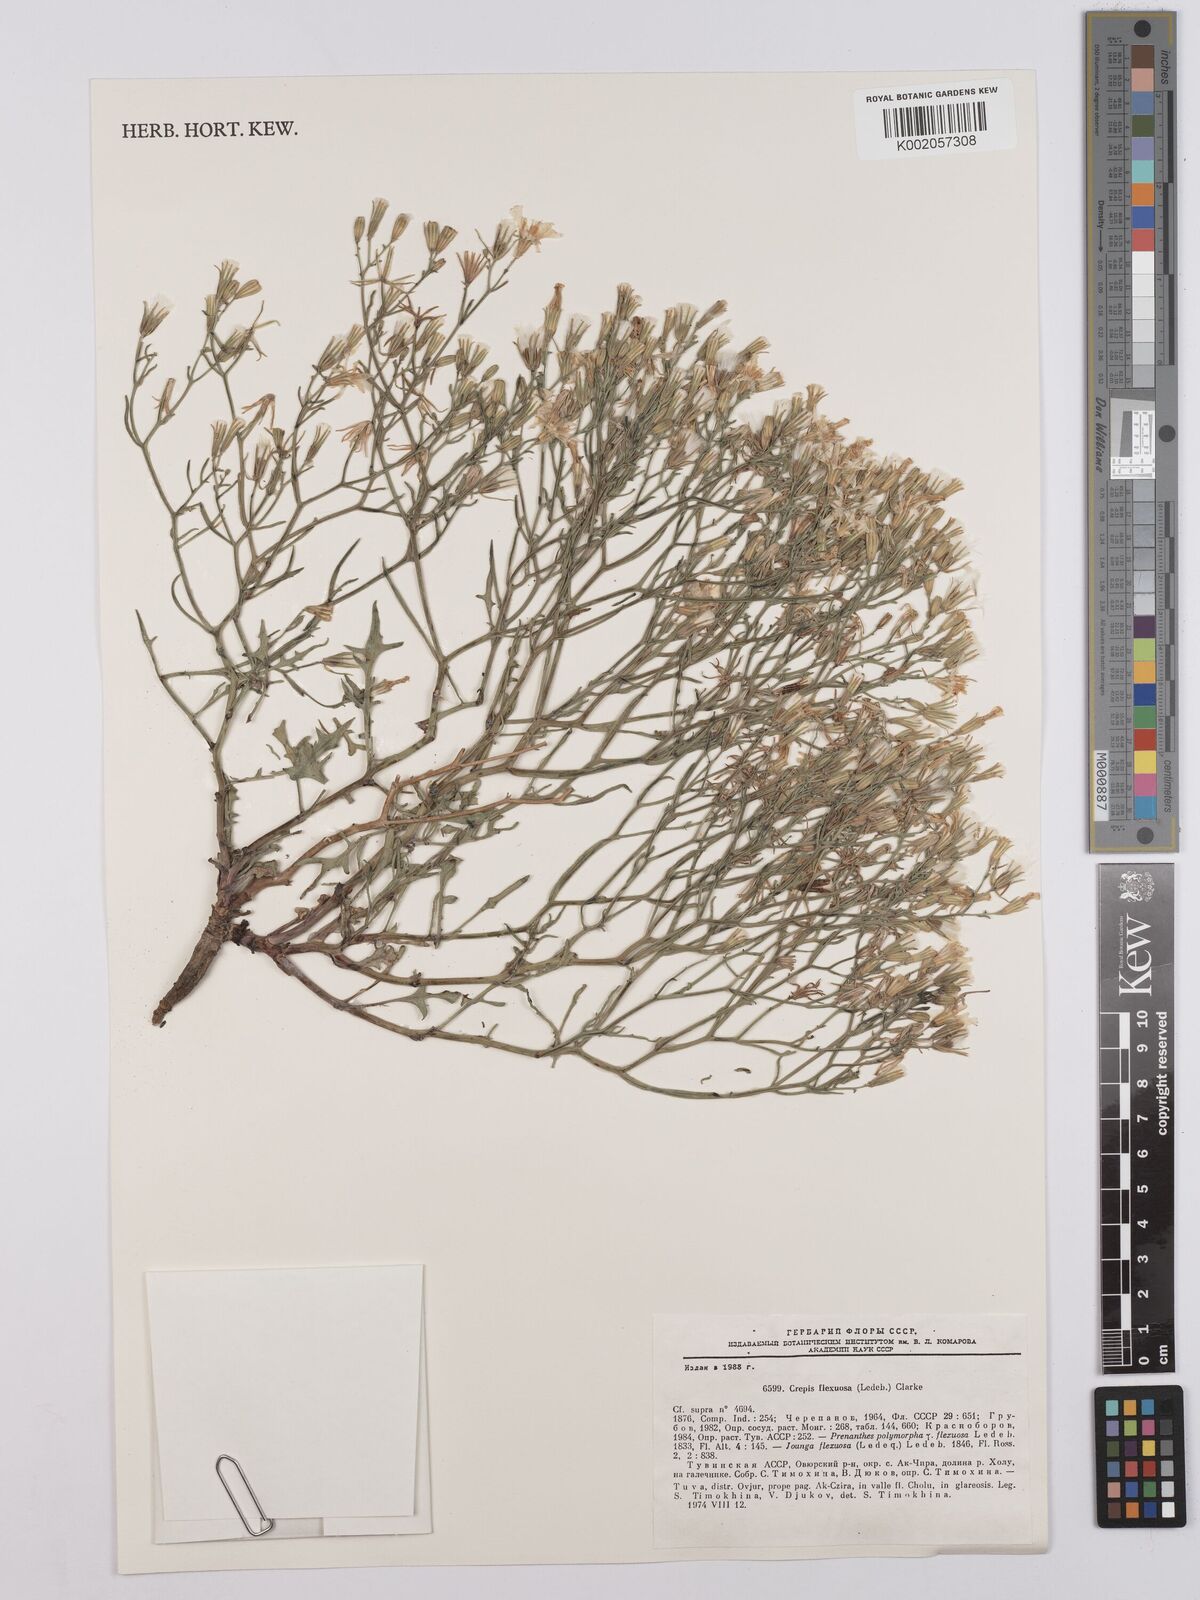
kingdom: Plantae
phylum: Tracheophyta
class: Magnoliopsida
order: Asterales
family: Asteraceae
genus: Crepis
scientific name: Crepis
